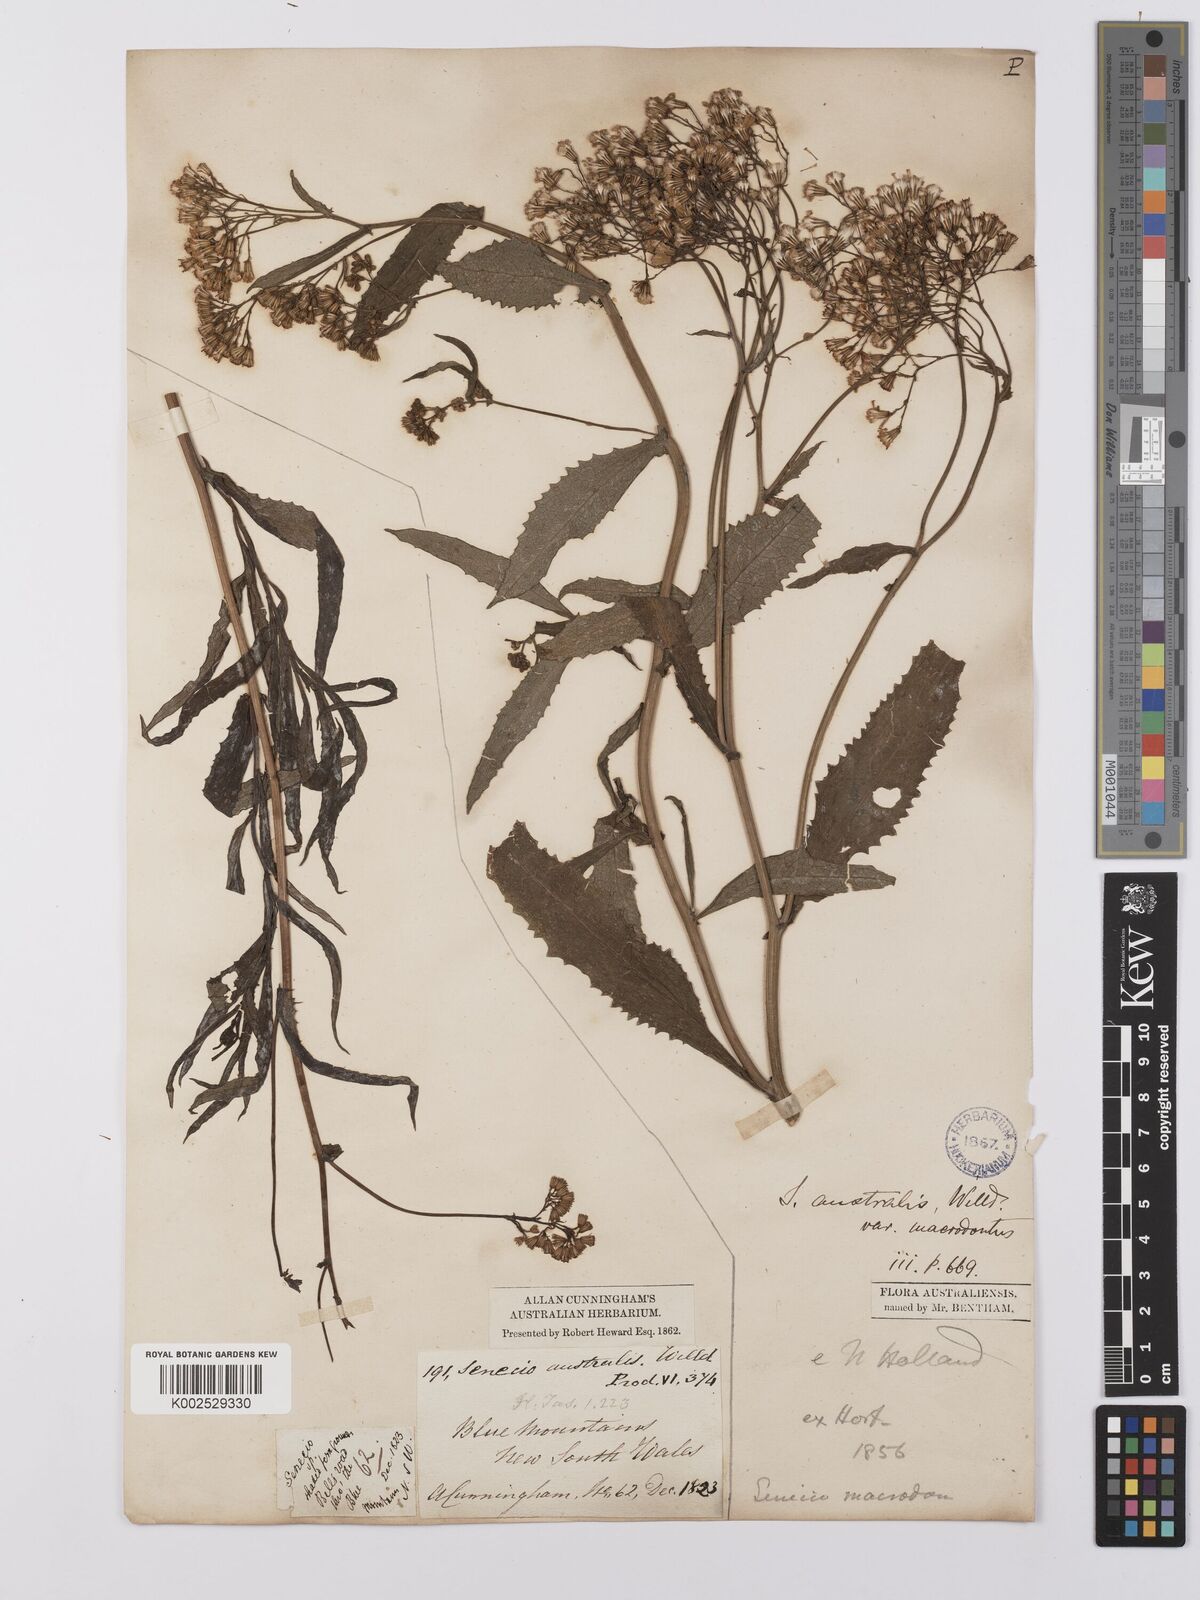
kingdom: Plantae
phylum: Tracheophyta
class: Magnoliopsida
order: Asterales
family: Asteraceae
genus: Senecio
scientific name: Senecio linearifolius
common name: Fireweed groundsel
